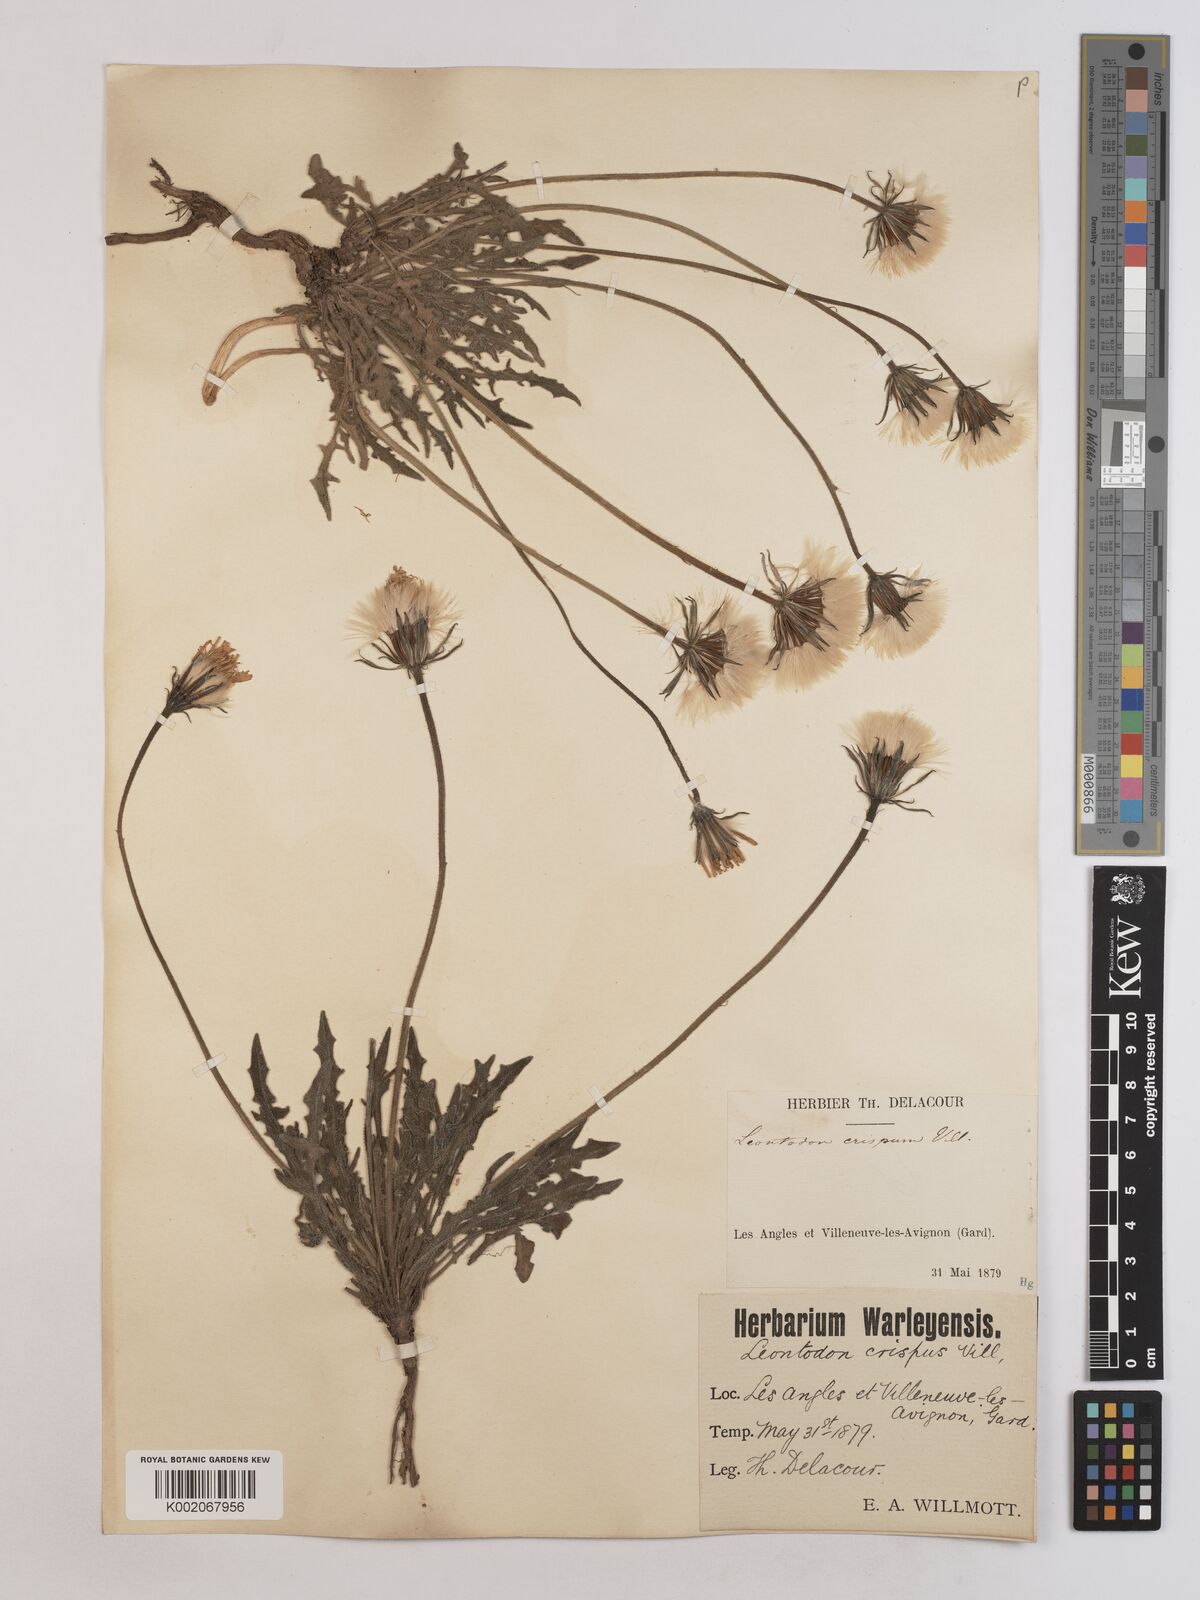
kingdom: Plantae
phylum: Tracheophyta
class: Magnoliopsida
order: Asterales
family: Asteraceae
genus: Leontodon
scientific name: Leontodon crispus
